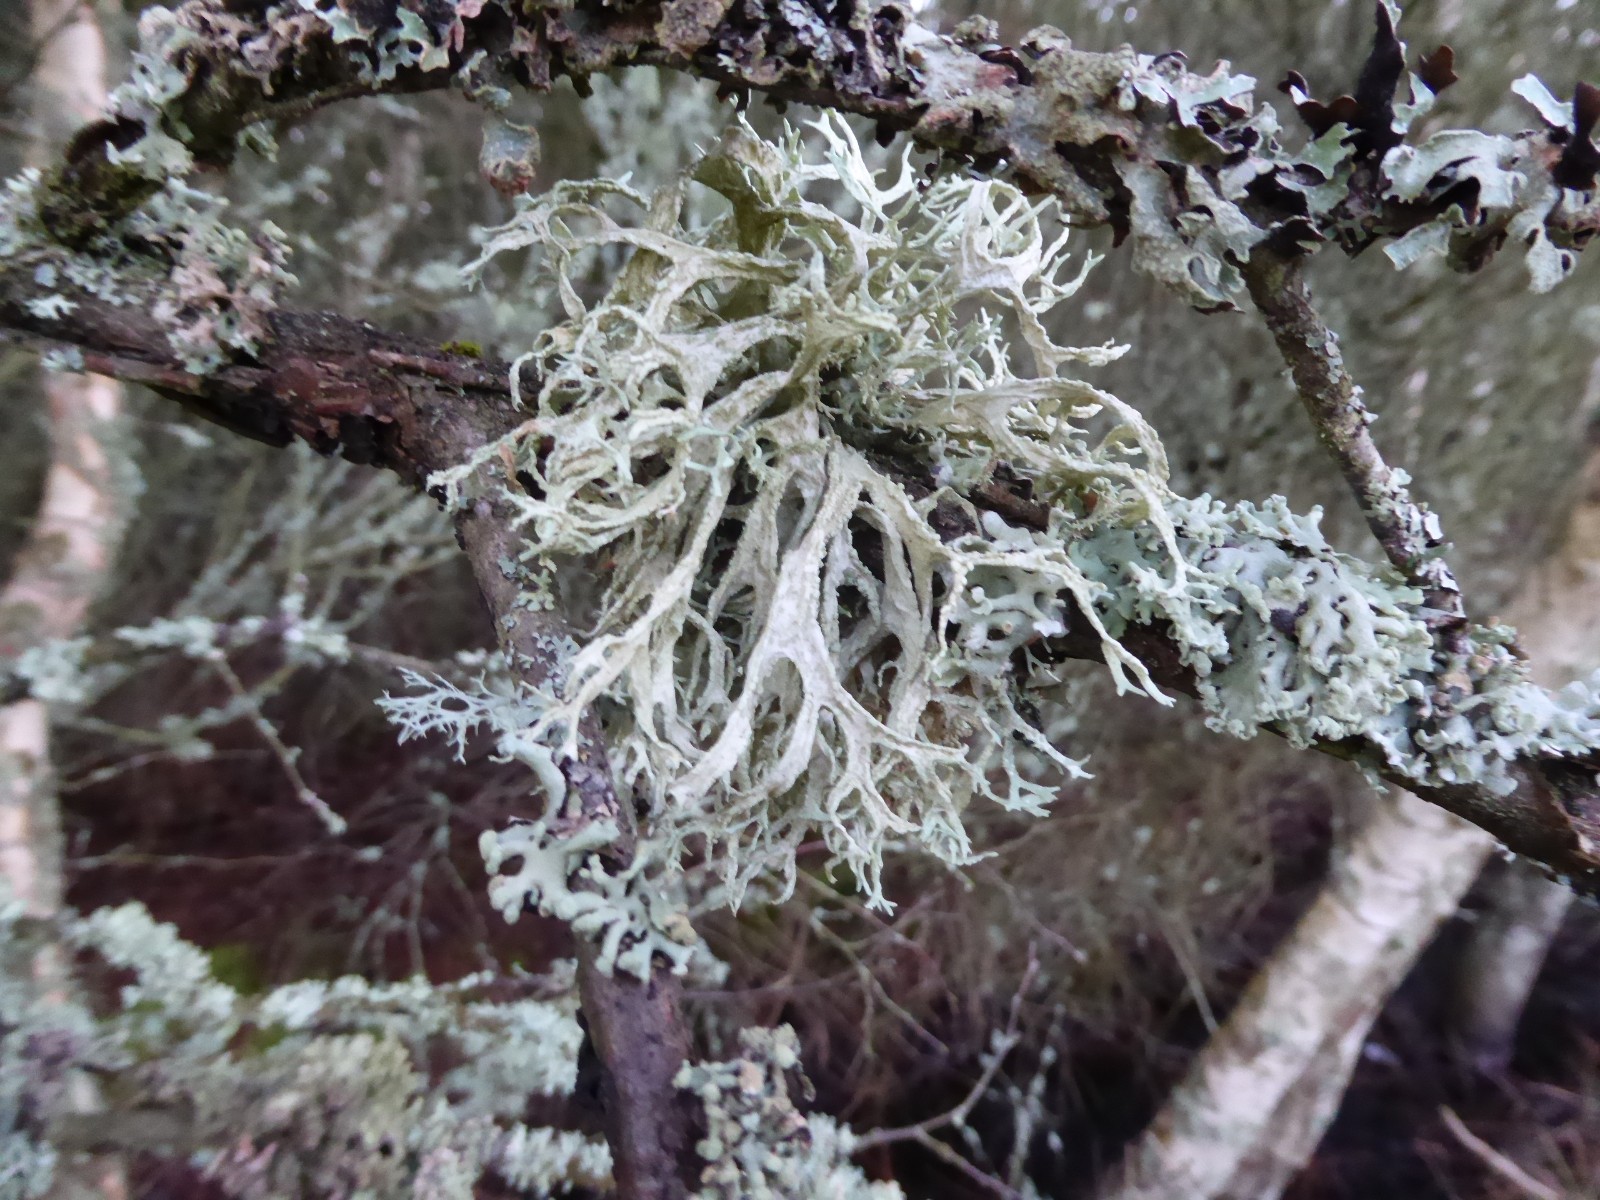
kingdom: Fungi
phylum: Ascomycota
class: Lecanoromycetes
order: Lecanorales
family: Parmeliaceae
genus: Evernia
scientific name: Evernia prunastri
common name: almindelig slåenlav
